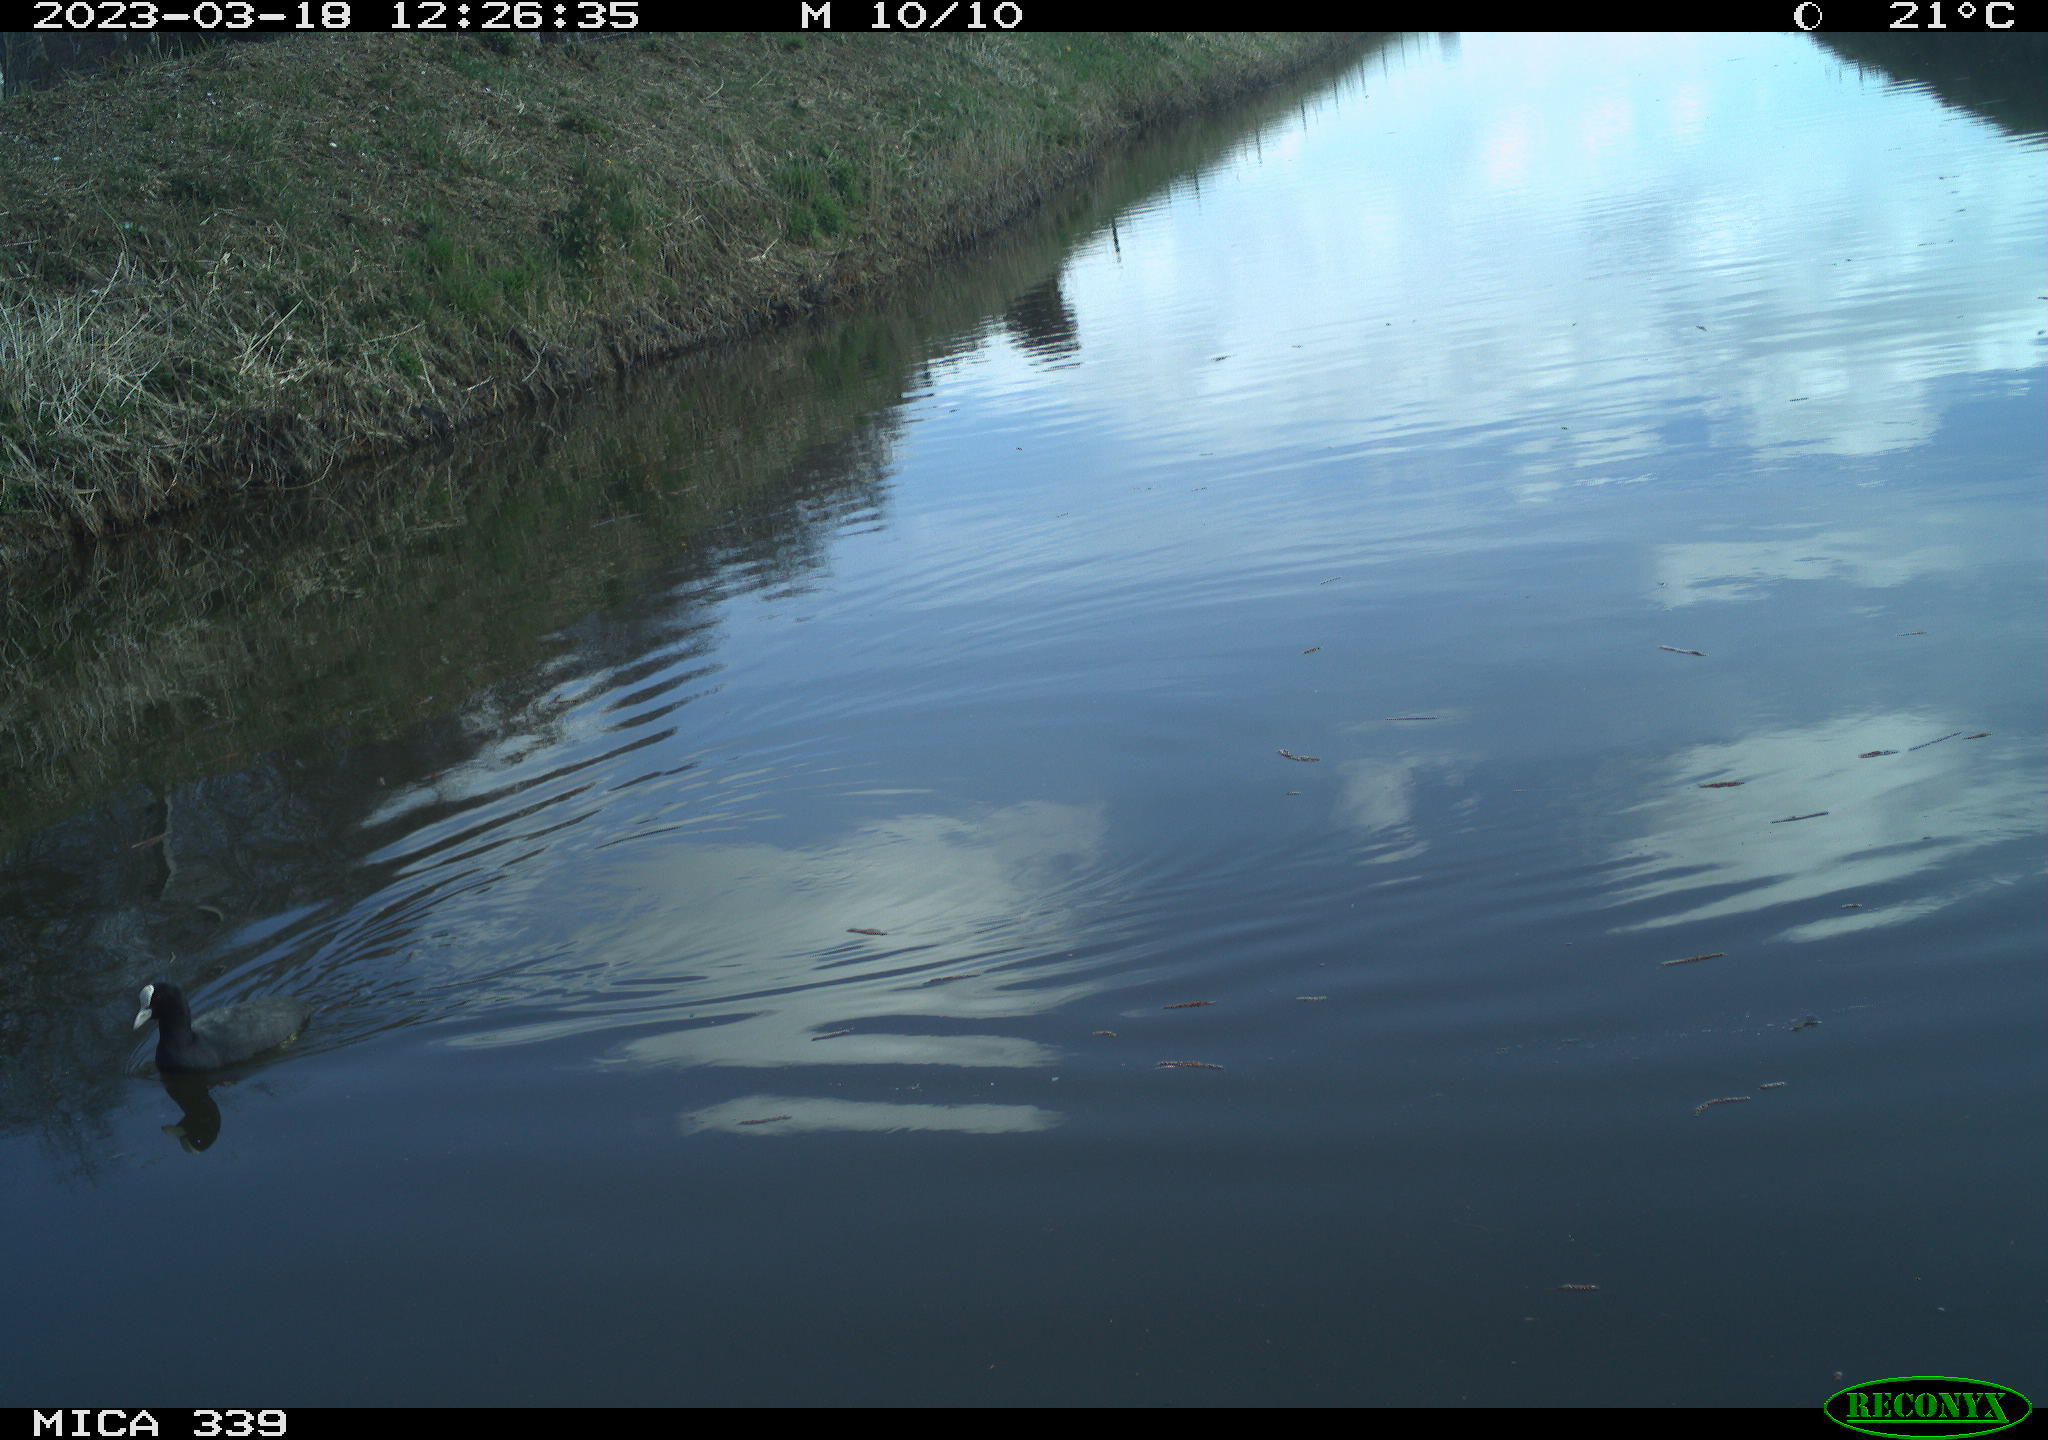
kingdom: Animalia
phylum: Chordata
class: Aves
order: Gruiformes
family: Rallidae
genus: Fulica
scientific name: Fulica atra
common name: Eurasian coot
